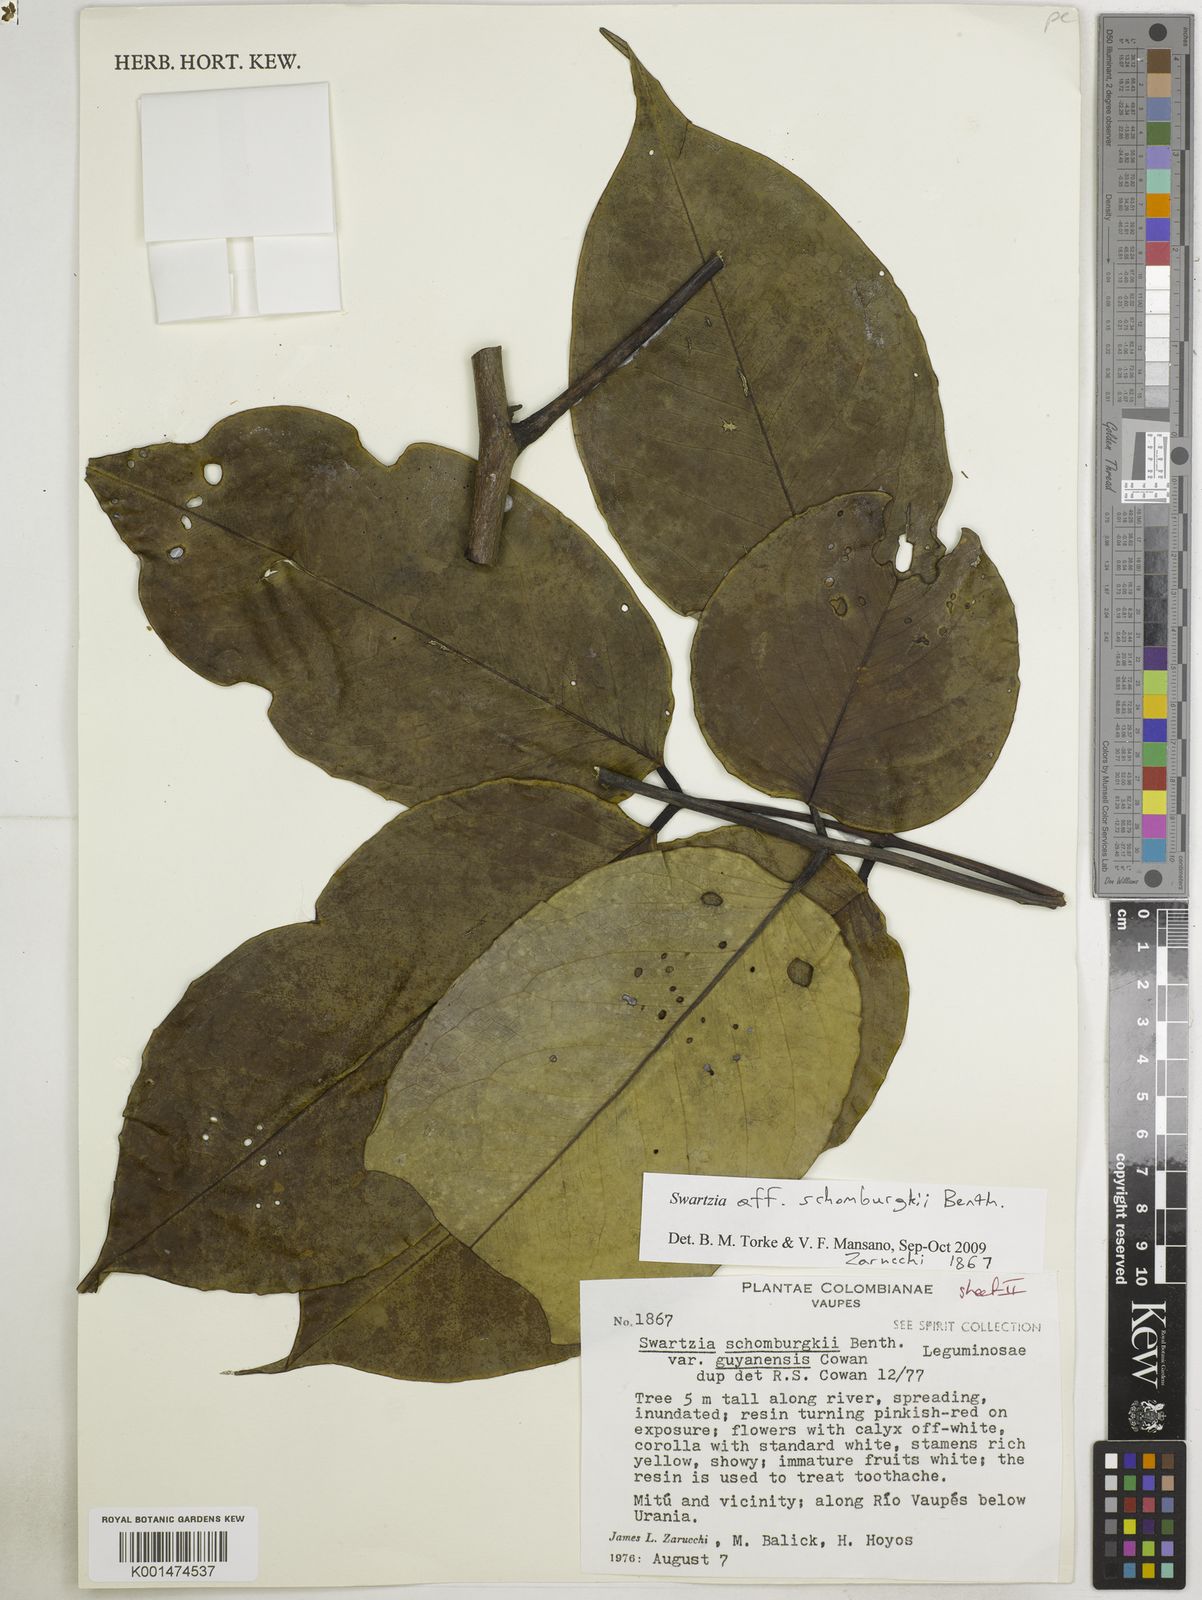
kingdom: Plantae
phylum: Tracheophyta
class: Magnoliopsida
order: Fabales
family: Fabaceae
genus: Swartzia
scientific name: Swartzia schomburgkii
